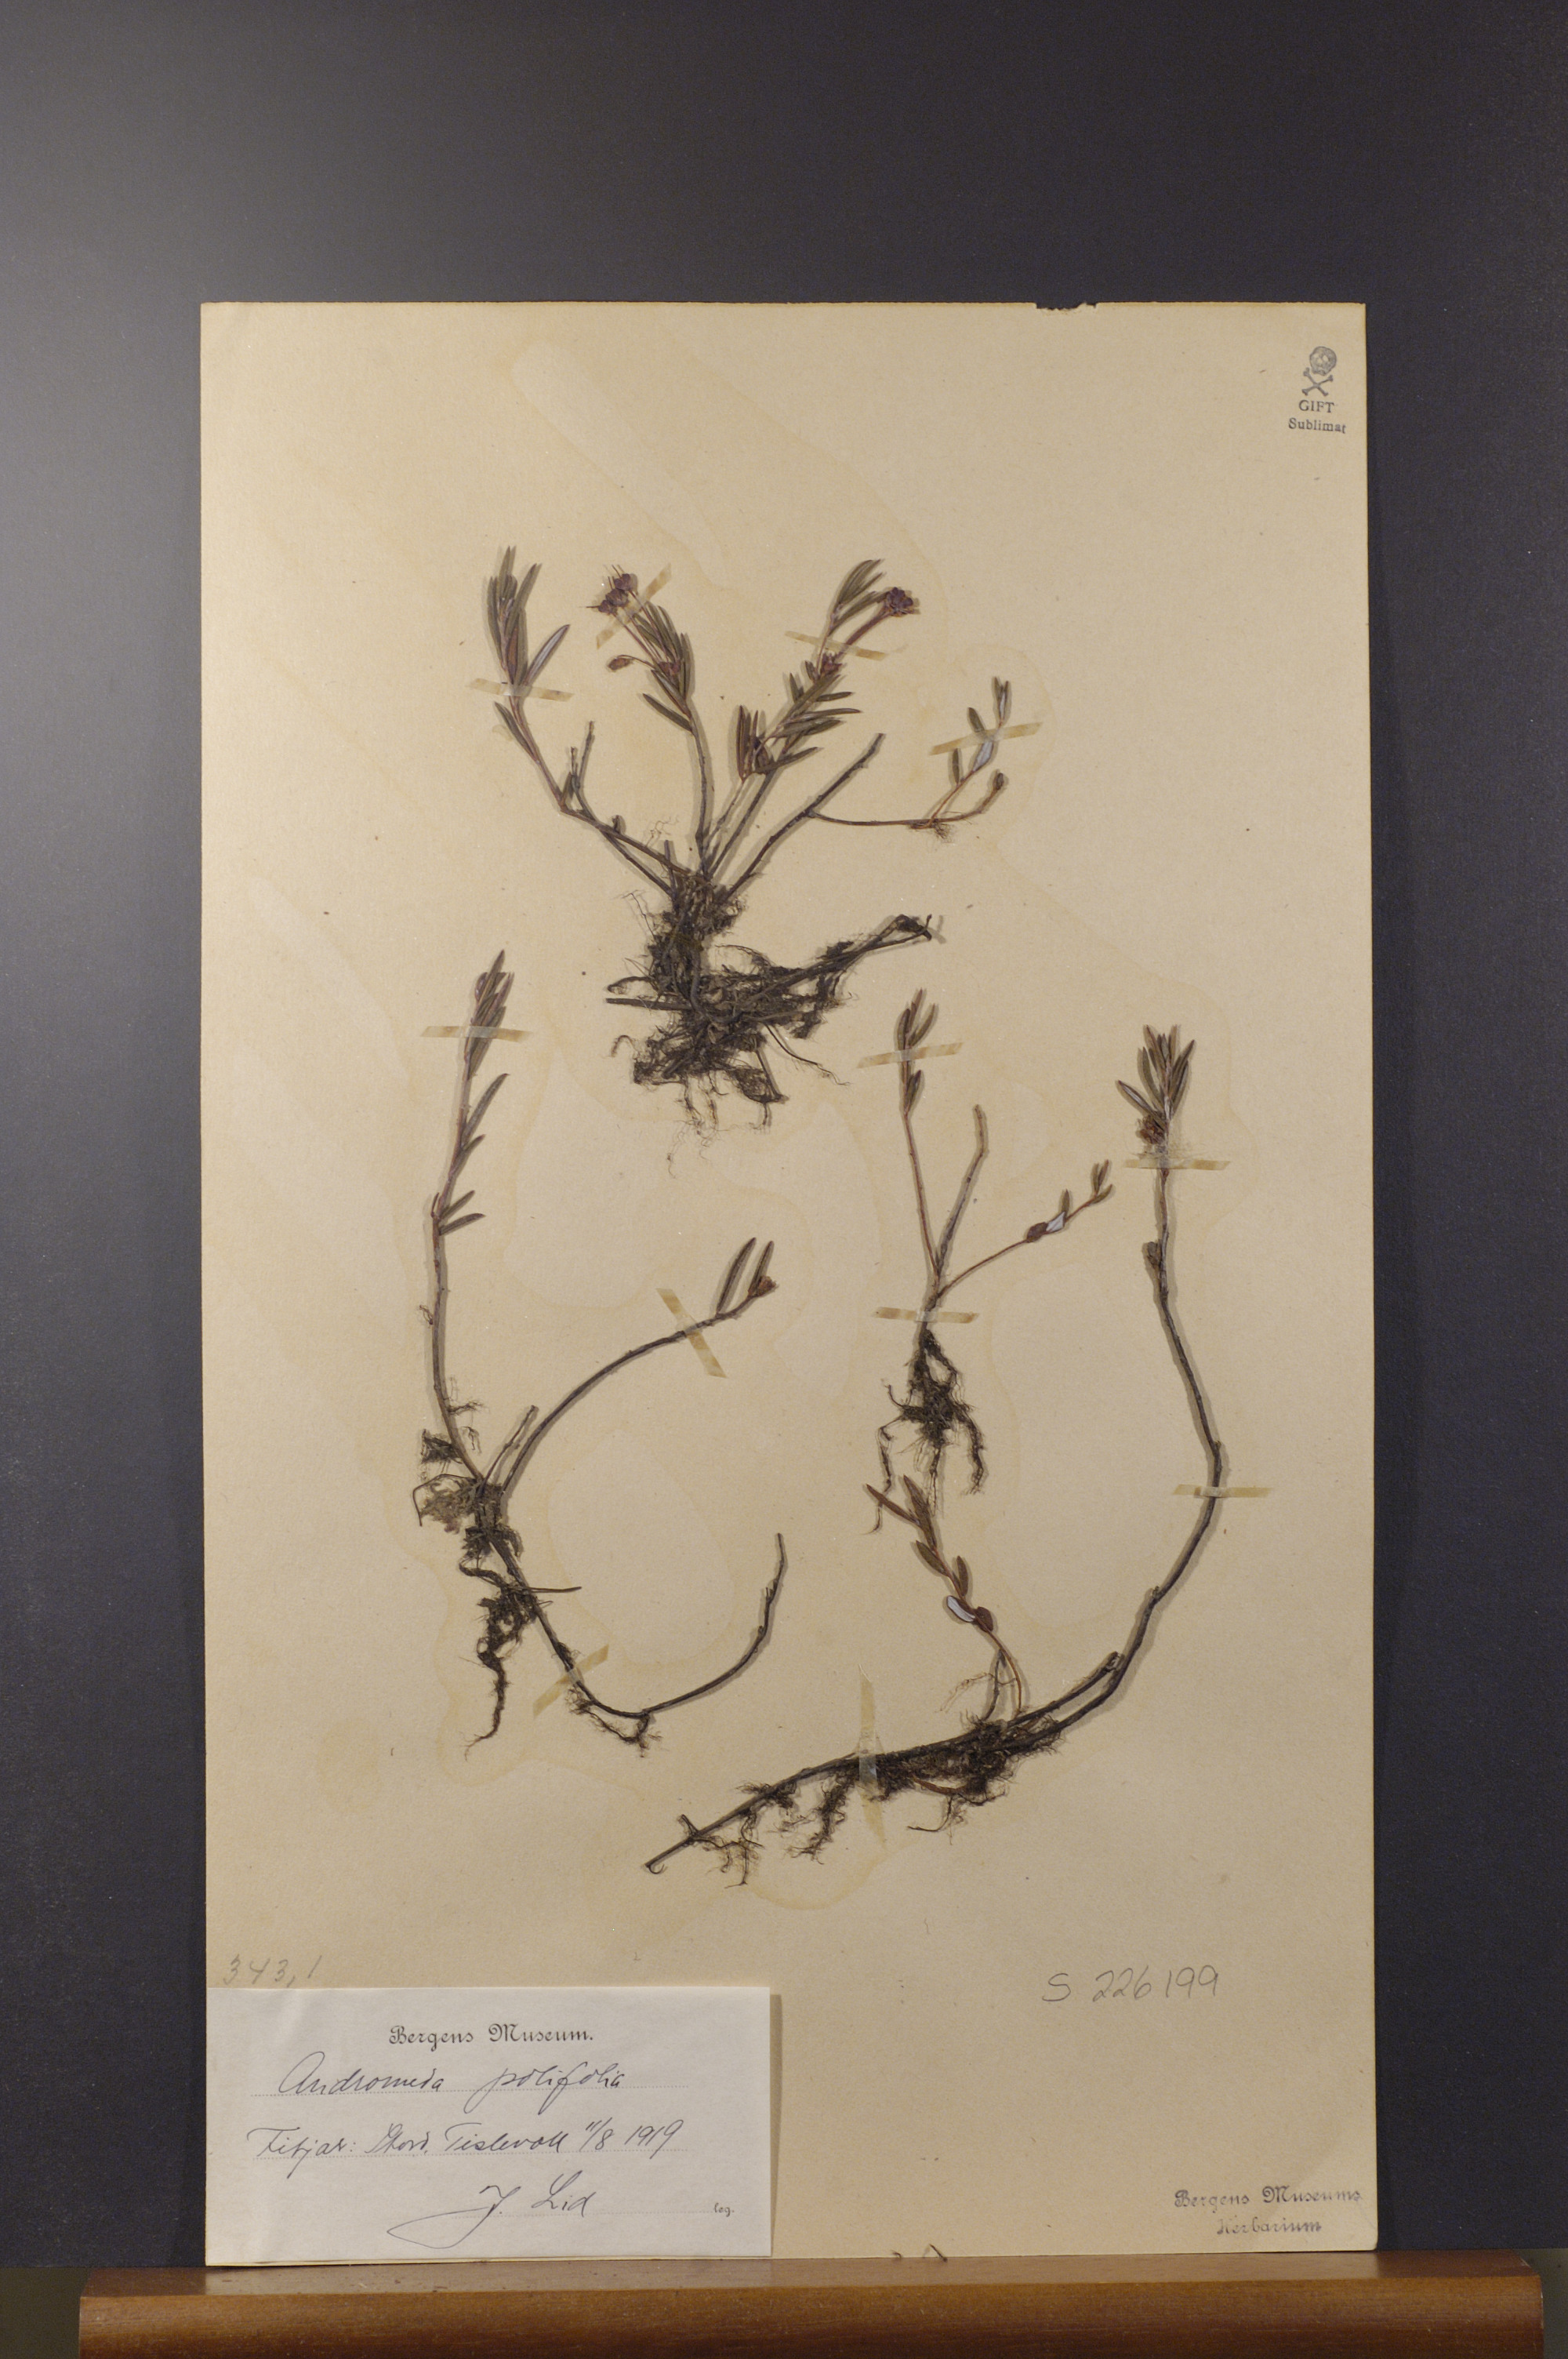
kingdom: Plantae
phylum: Tracheophyta
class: Magnoliopsida
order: Ericales
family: Ericaceae
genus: Andromeda
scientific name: Andromeda polifolia
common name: Bog-rosemary
